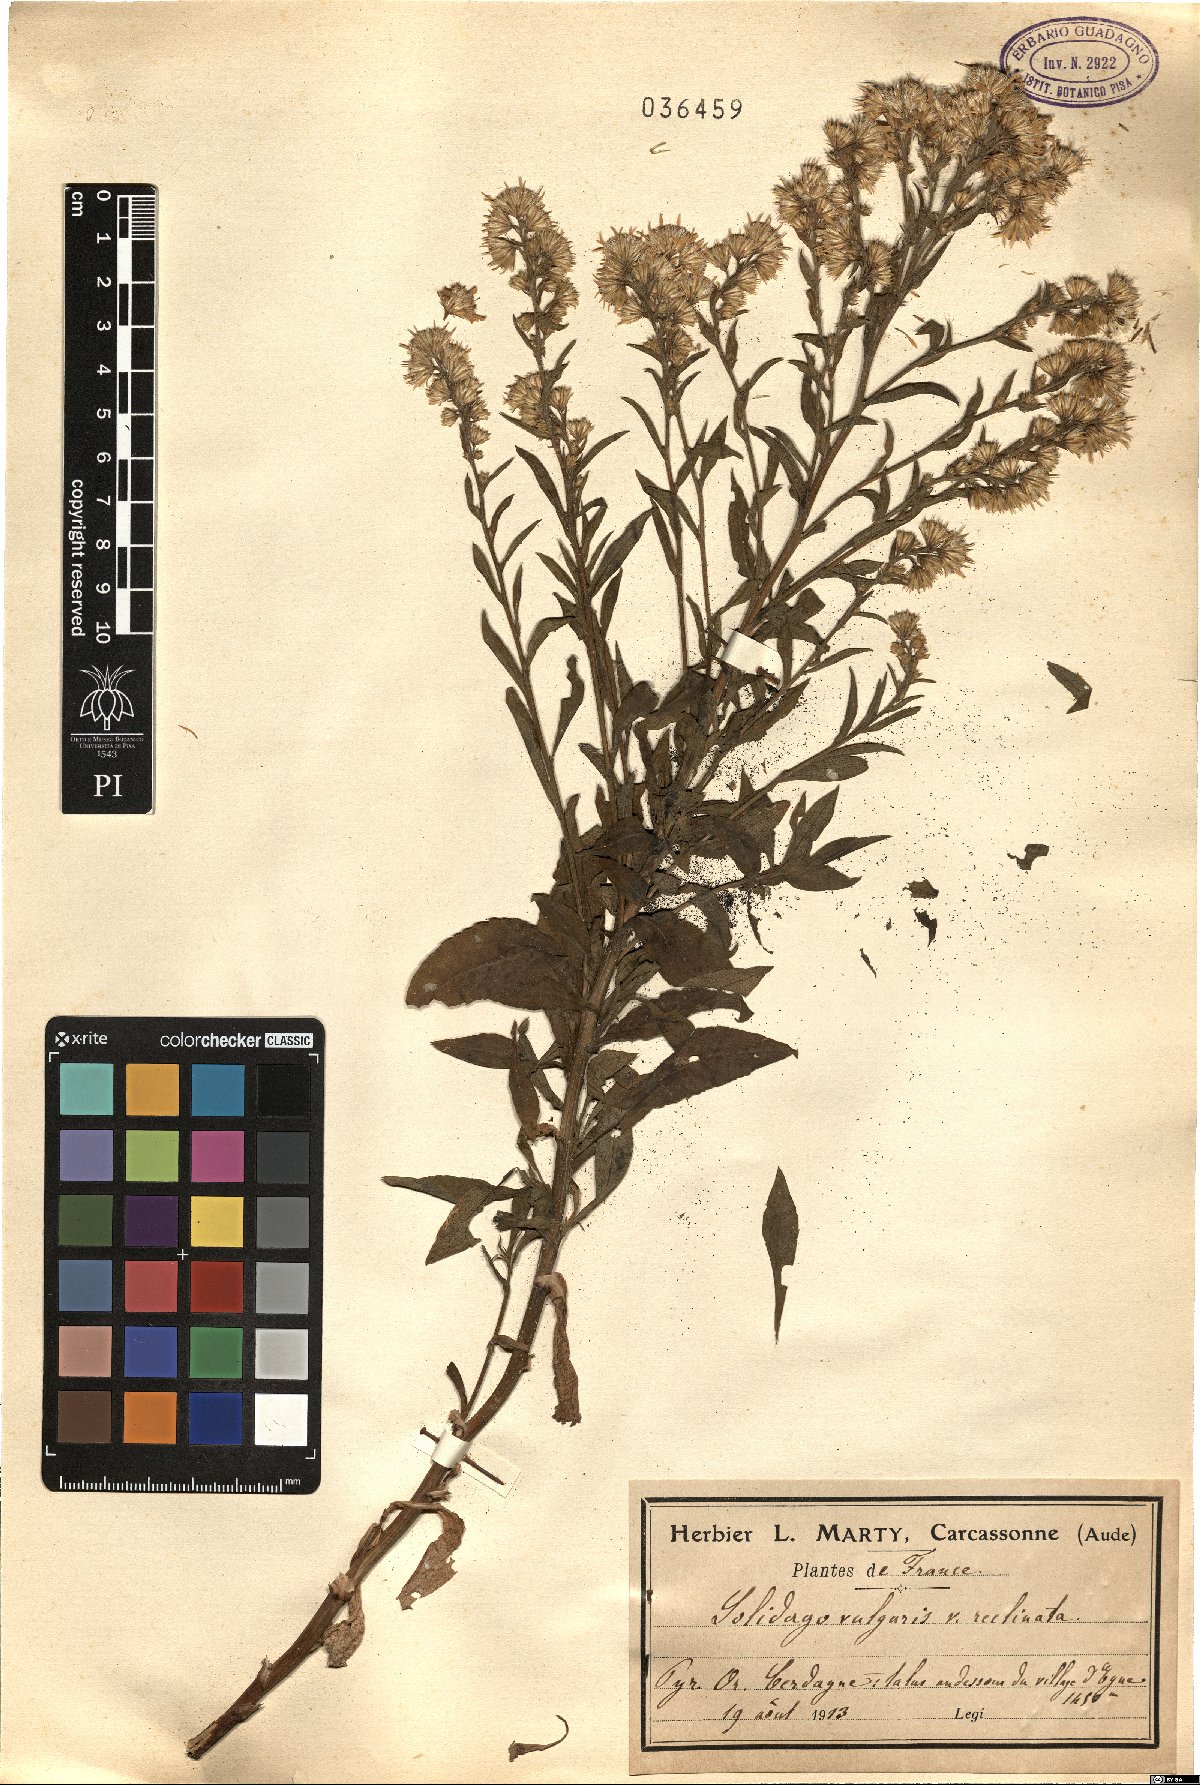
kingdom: Plantae
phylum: Tracheophyta
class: Magnoliopsida
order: Asterales
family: Asteraceae
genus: Solidago
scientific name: Solidago virgaurea
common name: Goldenrod
